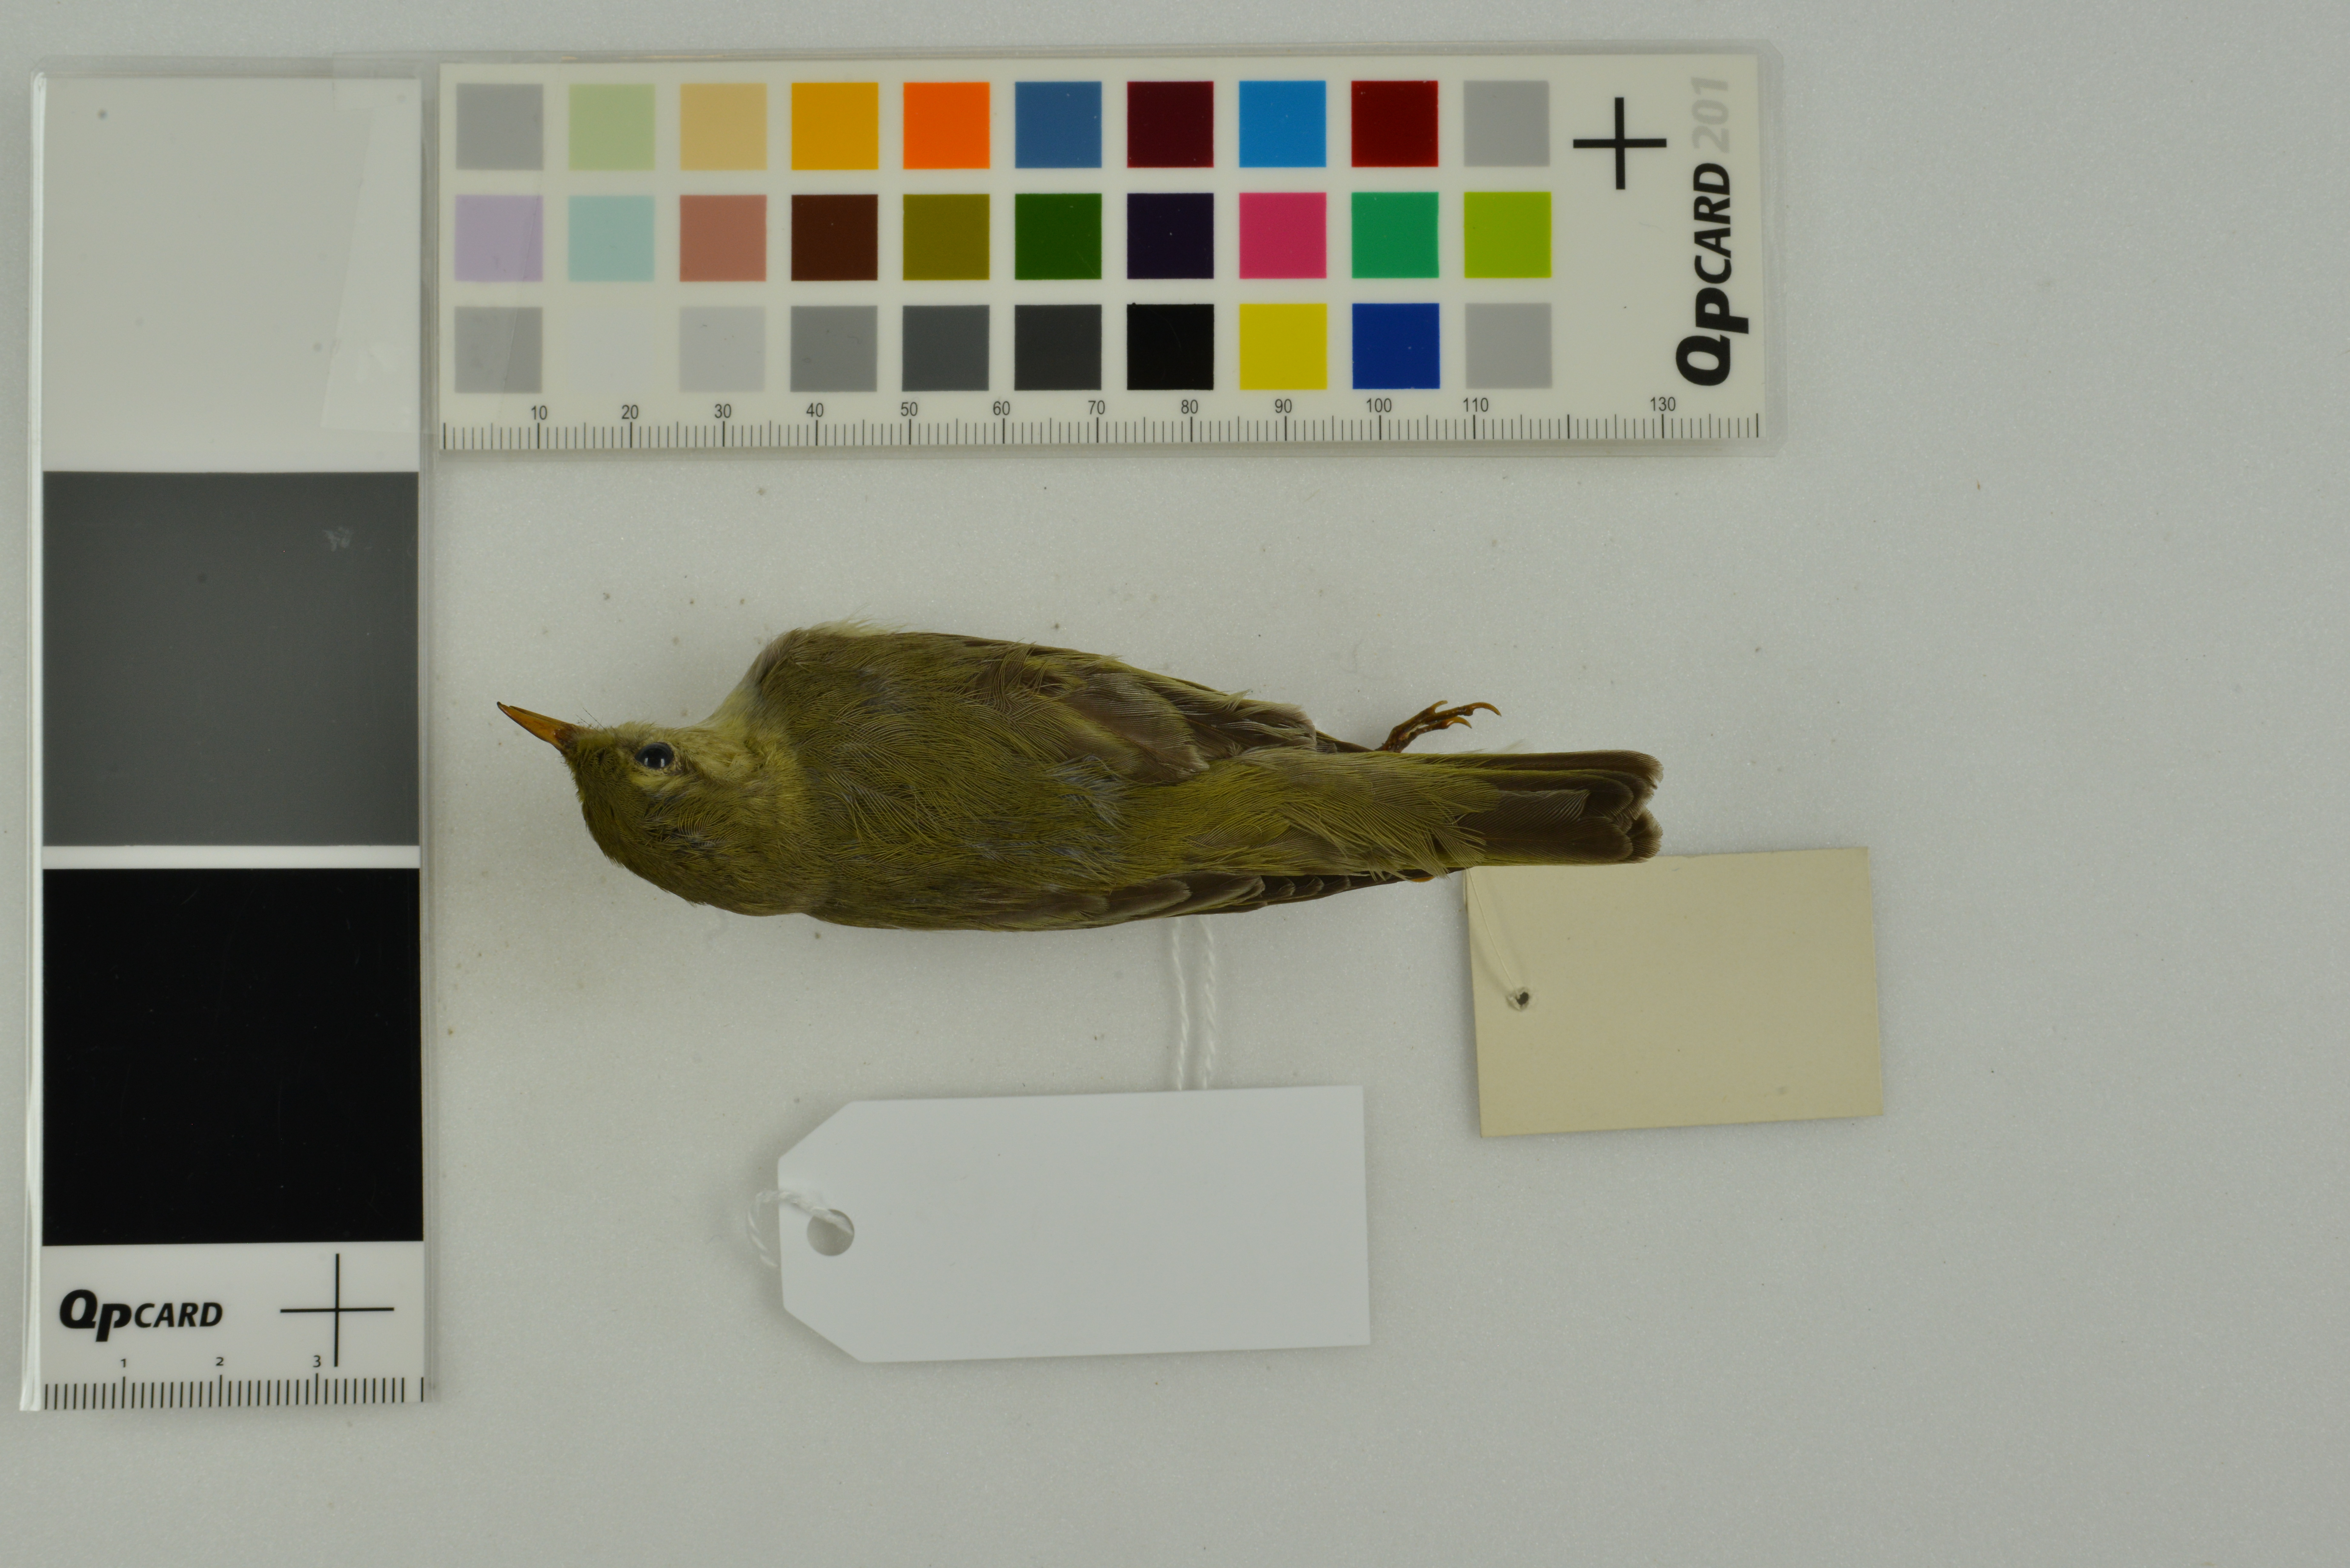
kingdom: Animalia
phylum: Chordata
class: Aves
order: Passeriformes
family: Phylloscopidae
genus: Phylloscopus
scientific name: Phylloscopus sibillatrix
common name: Wood warbler
